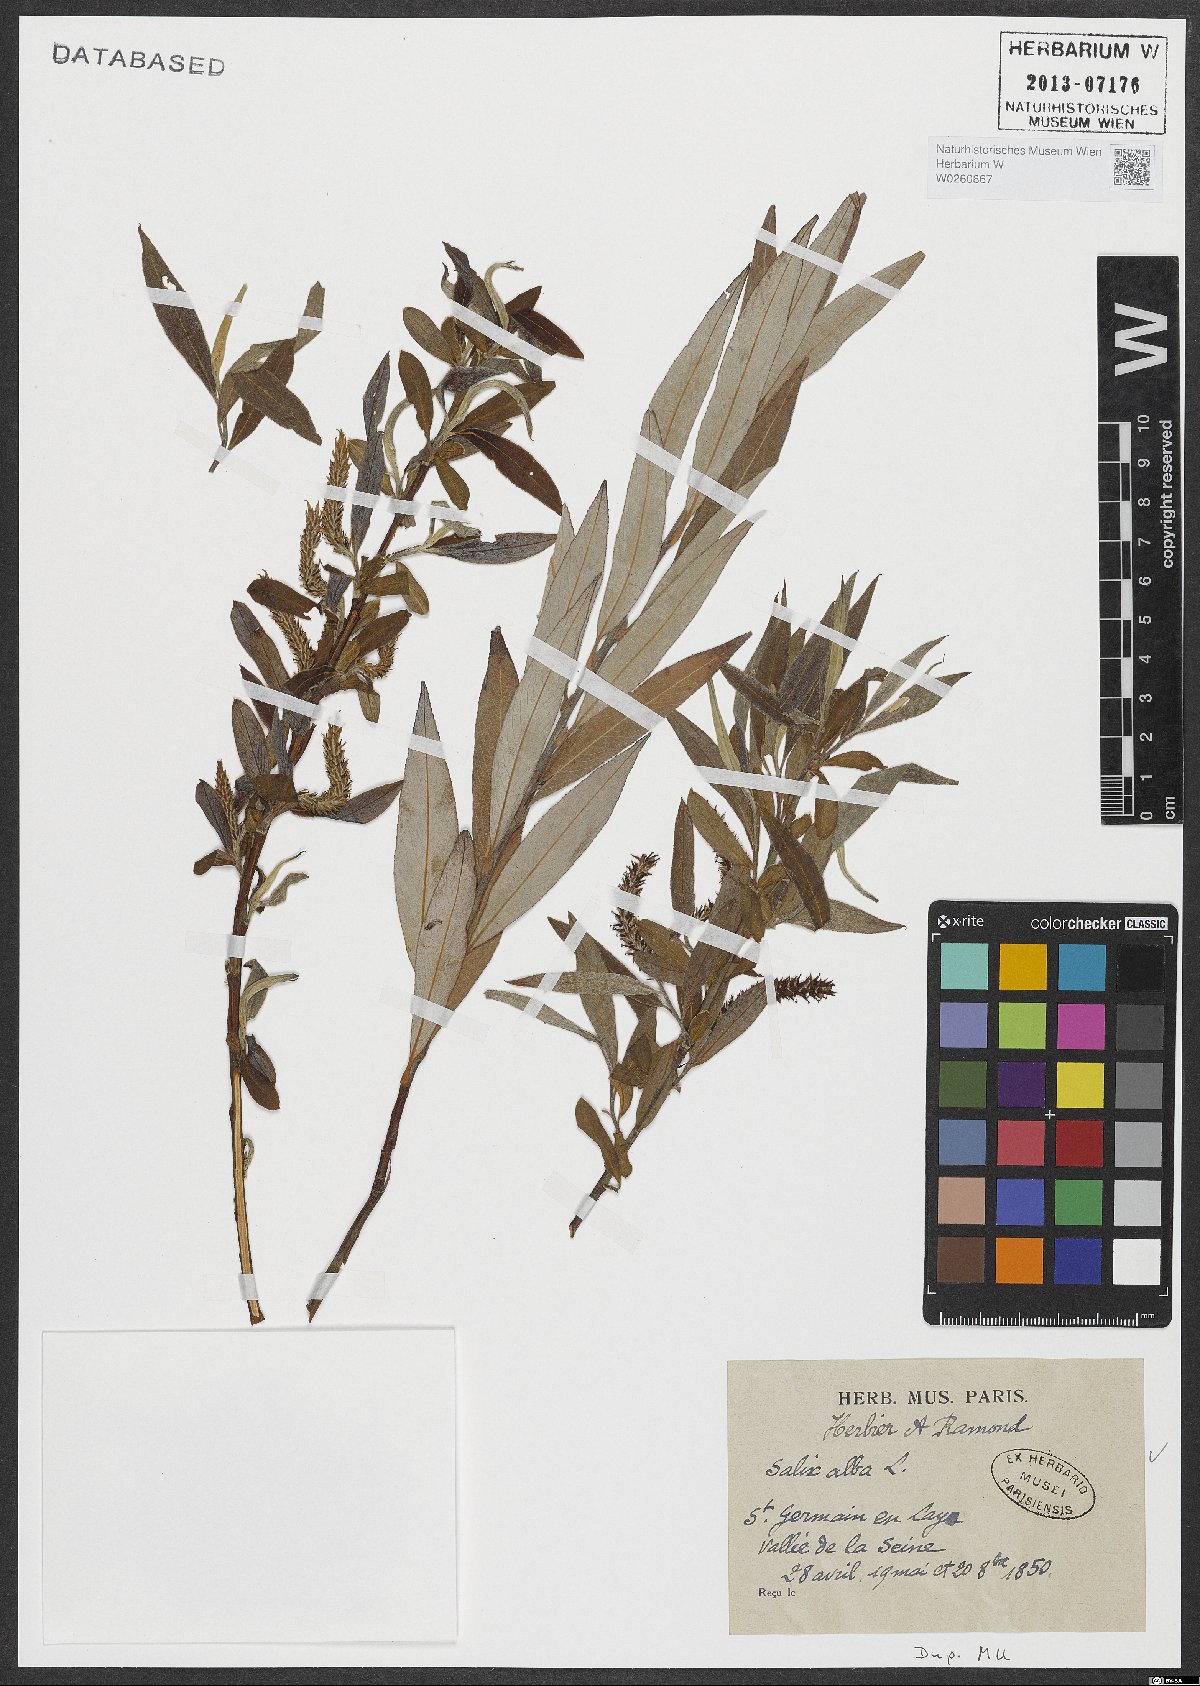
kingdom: Plantae
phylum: Tracheophyta
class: Magnoliopsida
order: Malpighiales
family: Salicaceae
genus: Salix
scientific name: Salix alba
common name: White willow
